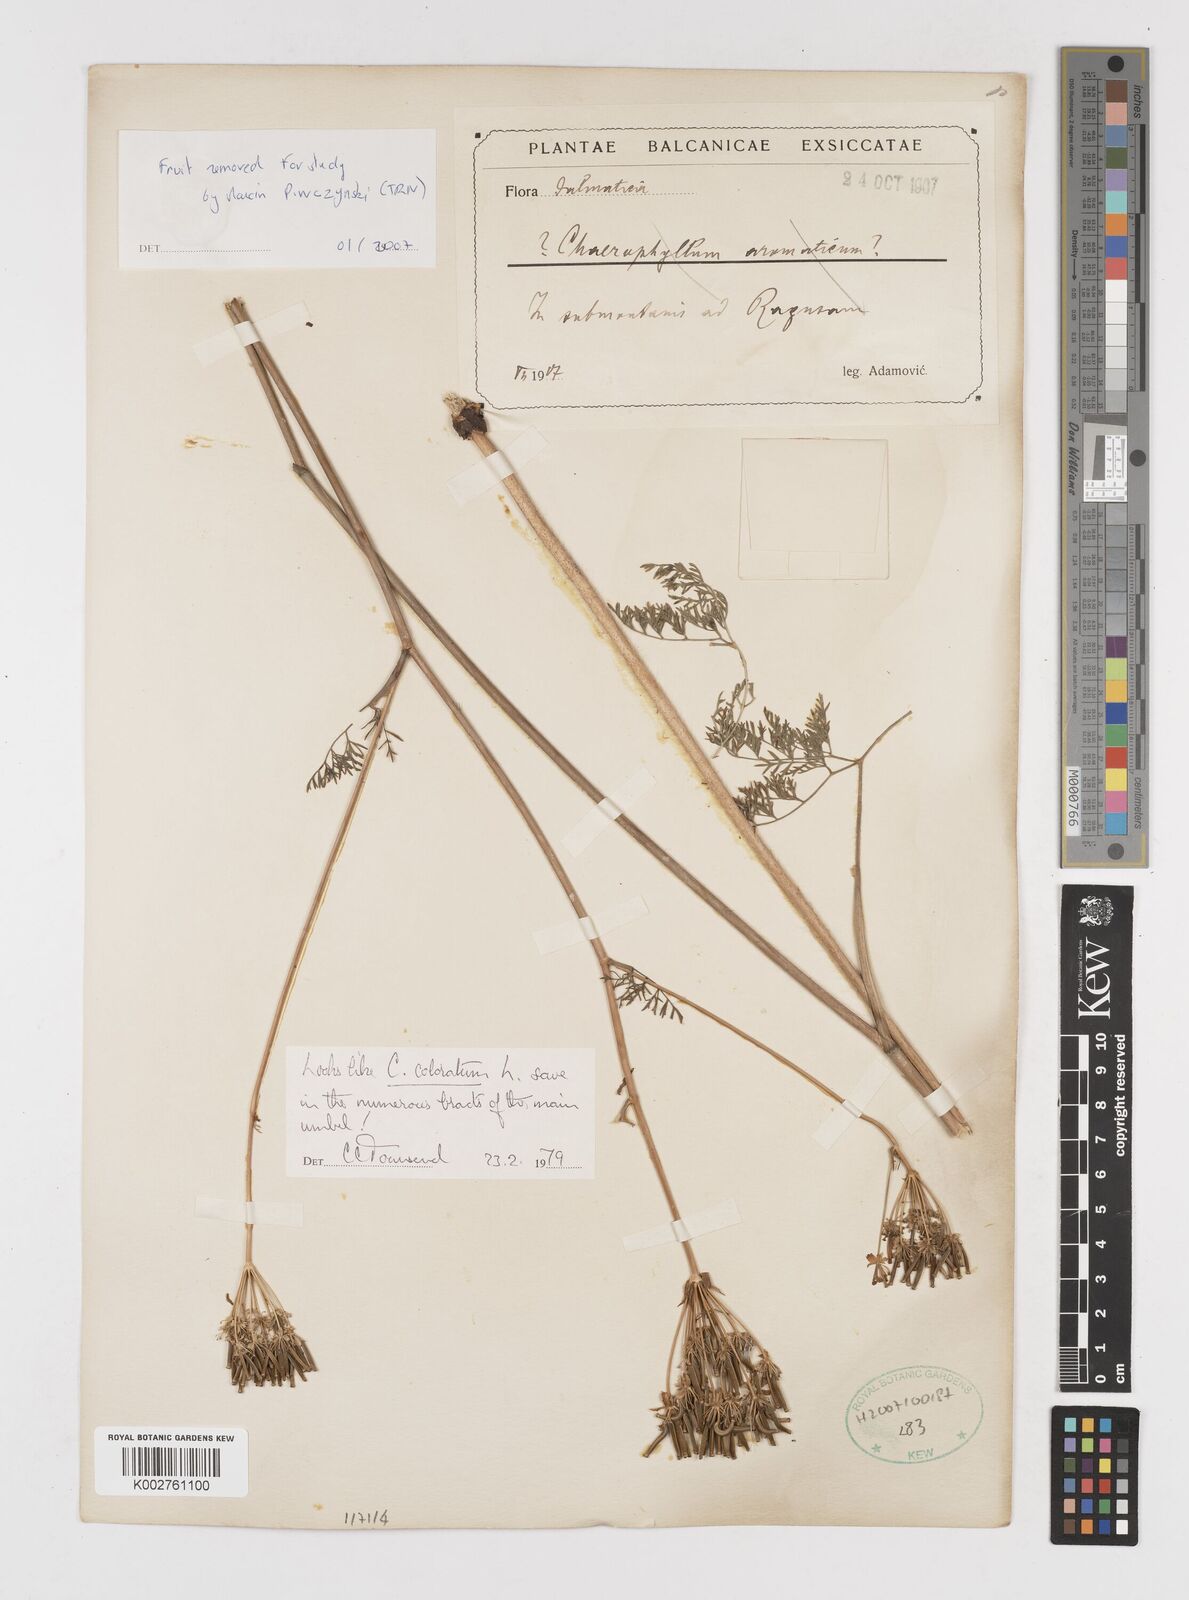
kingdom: Plantae
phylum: Tracheophyta
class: Magnoliopsida
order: Apiales
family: Apiaceae
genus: Chaerophyllum
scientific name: Chaerophyllum coloratum
